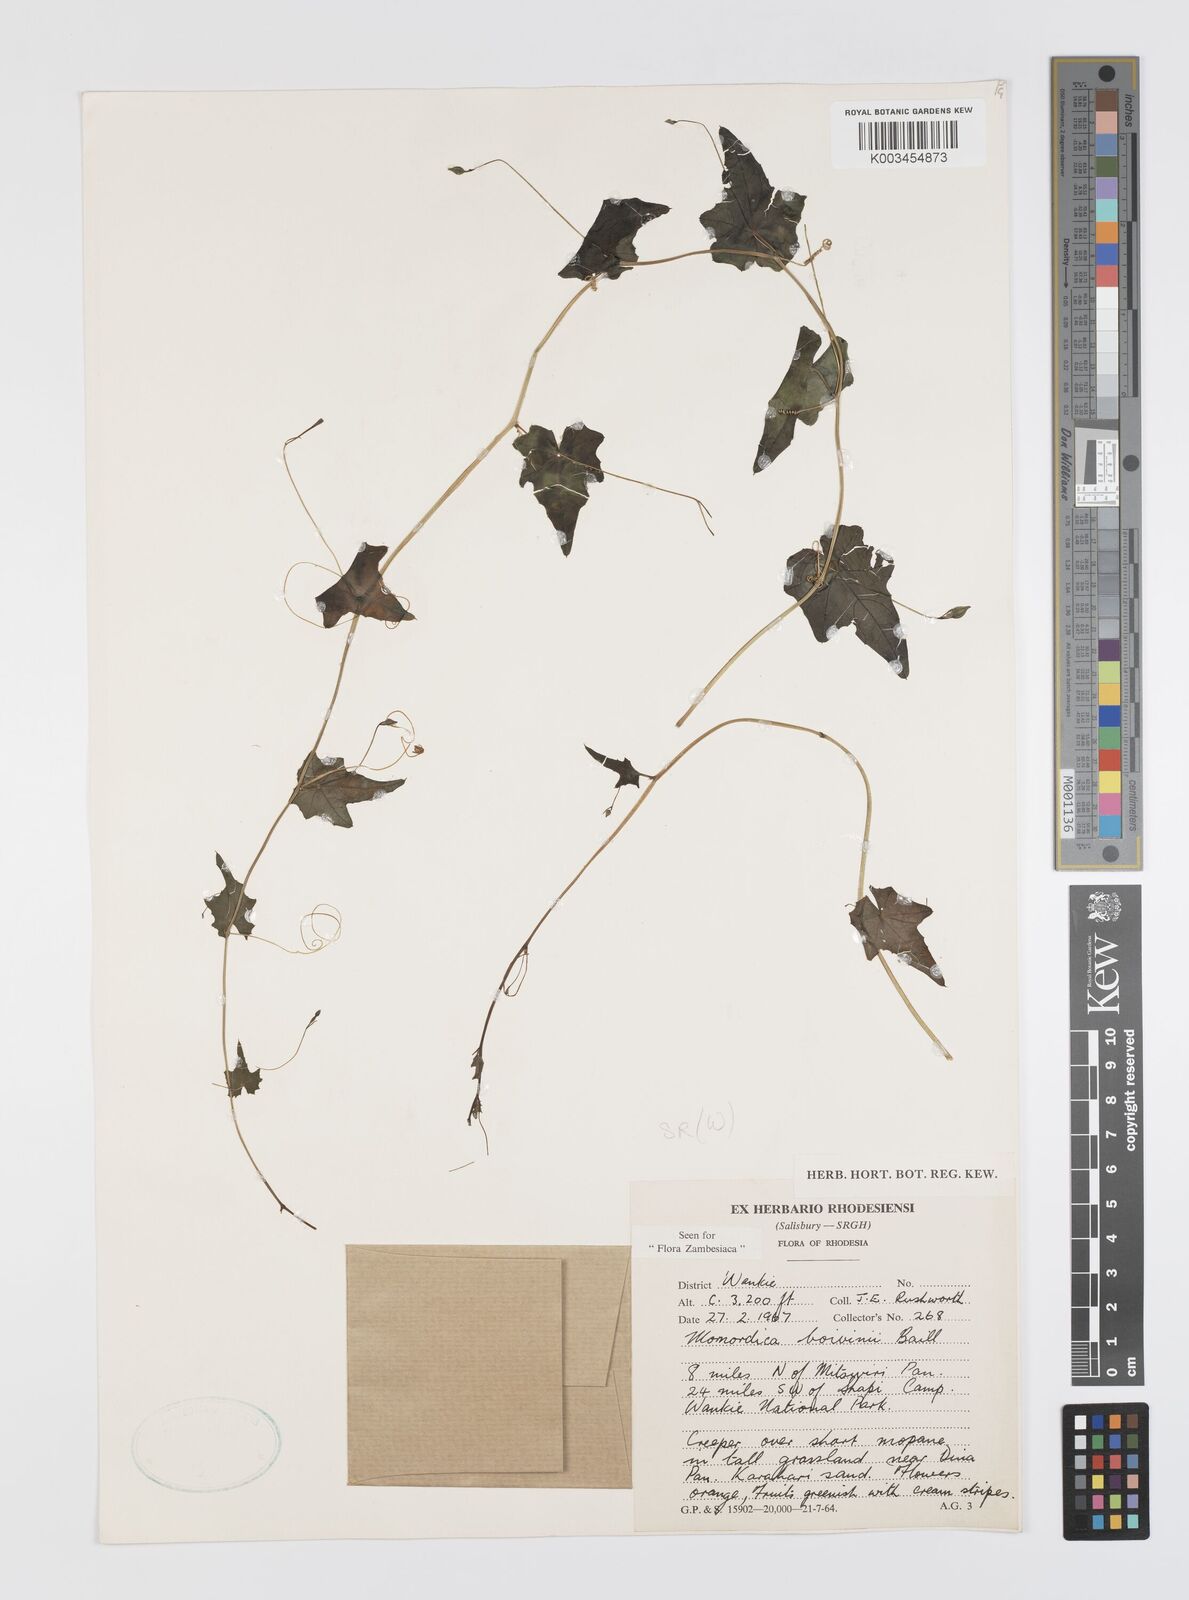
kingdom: Plantae
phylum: Tracheophyta
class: Magnoliopsida
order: Cucurbitales
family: Cucurbitaceae
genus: Momordica
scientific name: Momordica boivinii
